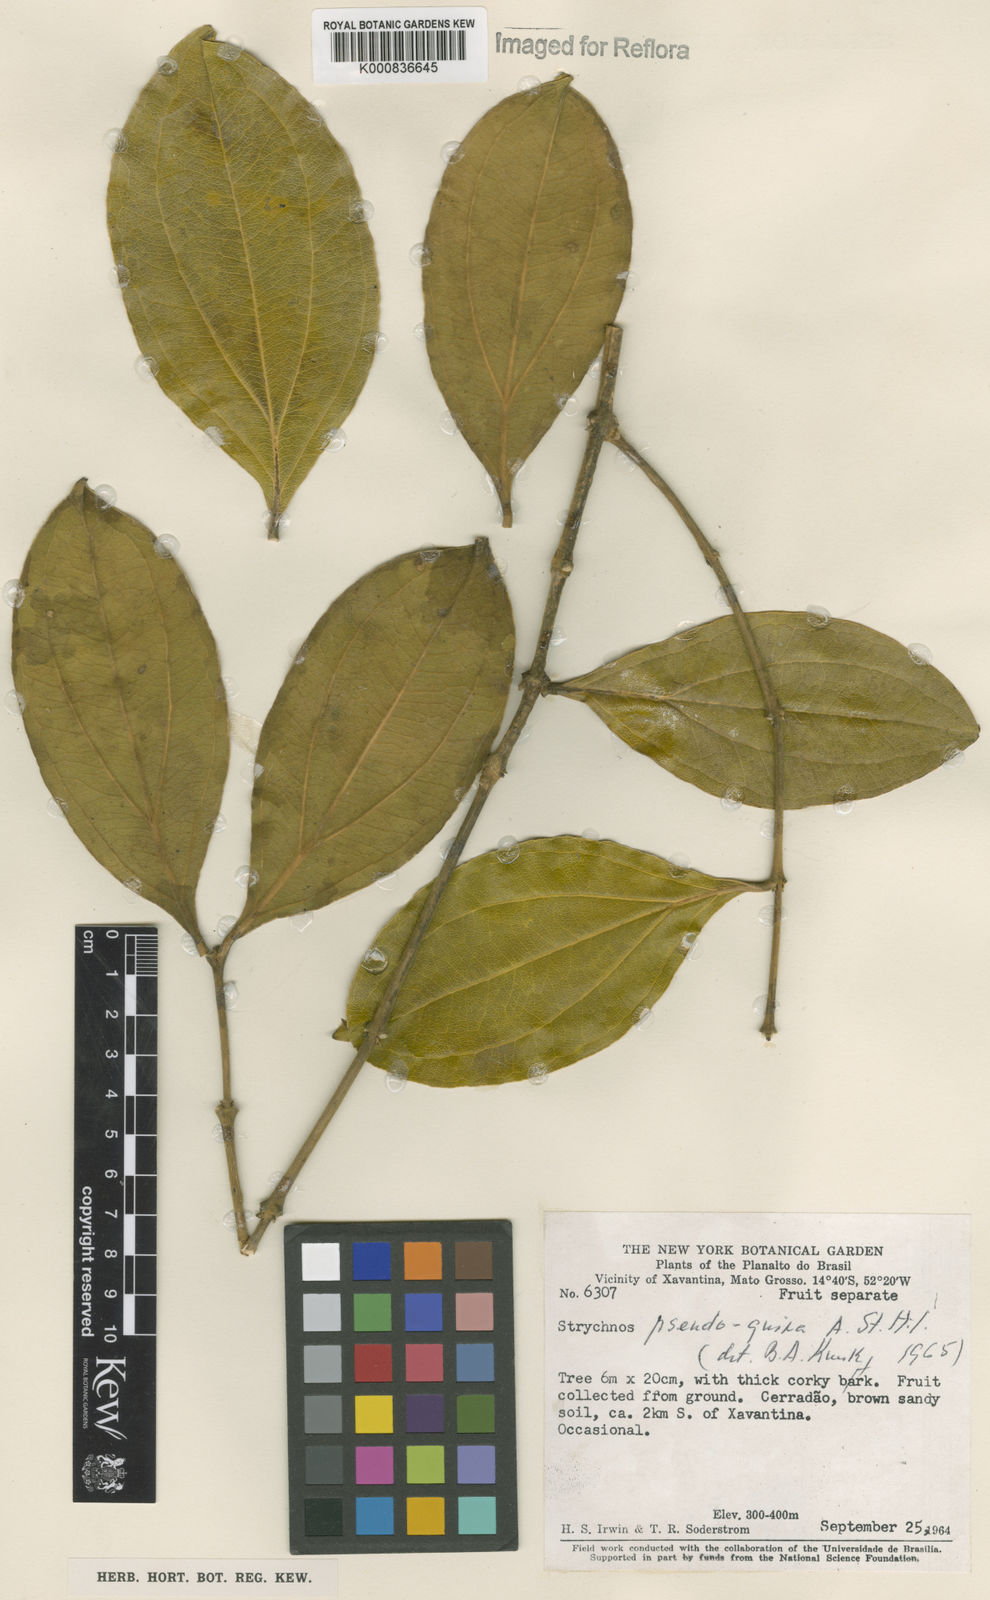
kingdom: Plantae
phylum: Tracheophyta
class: Magnoliopsida
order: Gentianales
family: Loganiaceae
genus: Strychnos
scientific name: Strychnos pseudoquina
